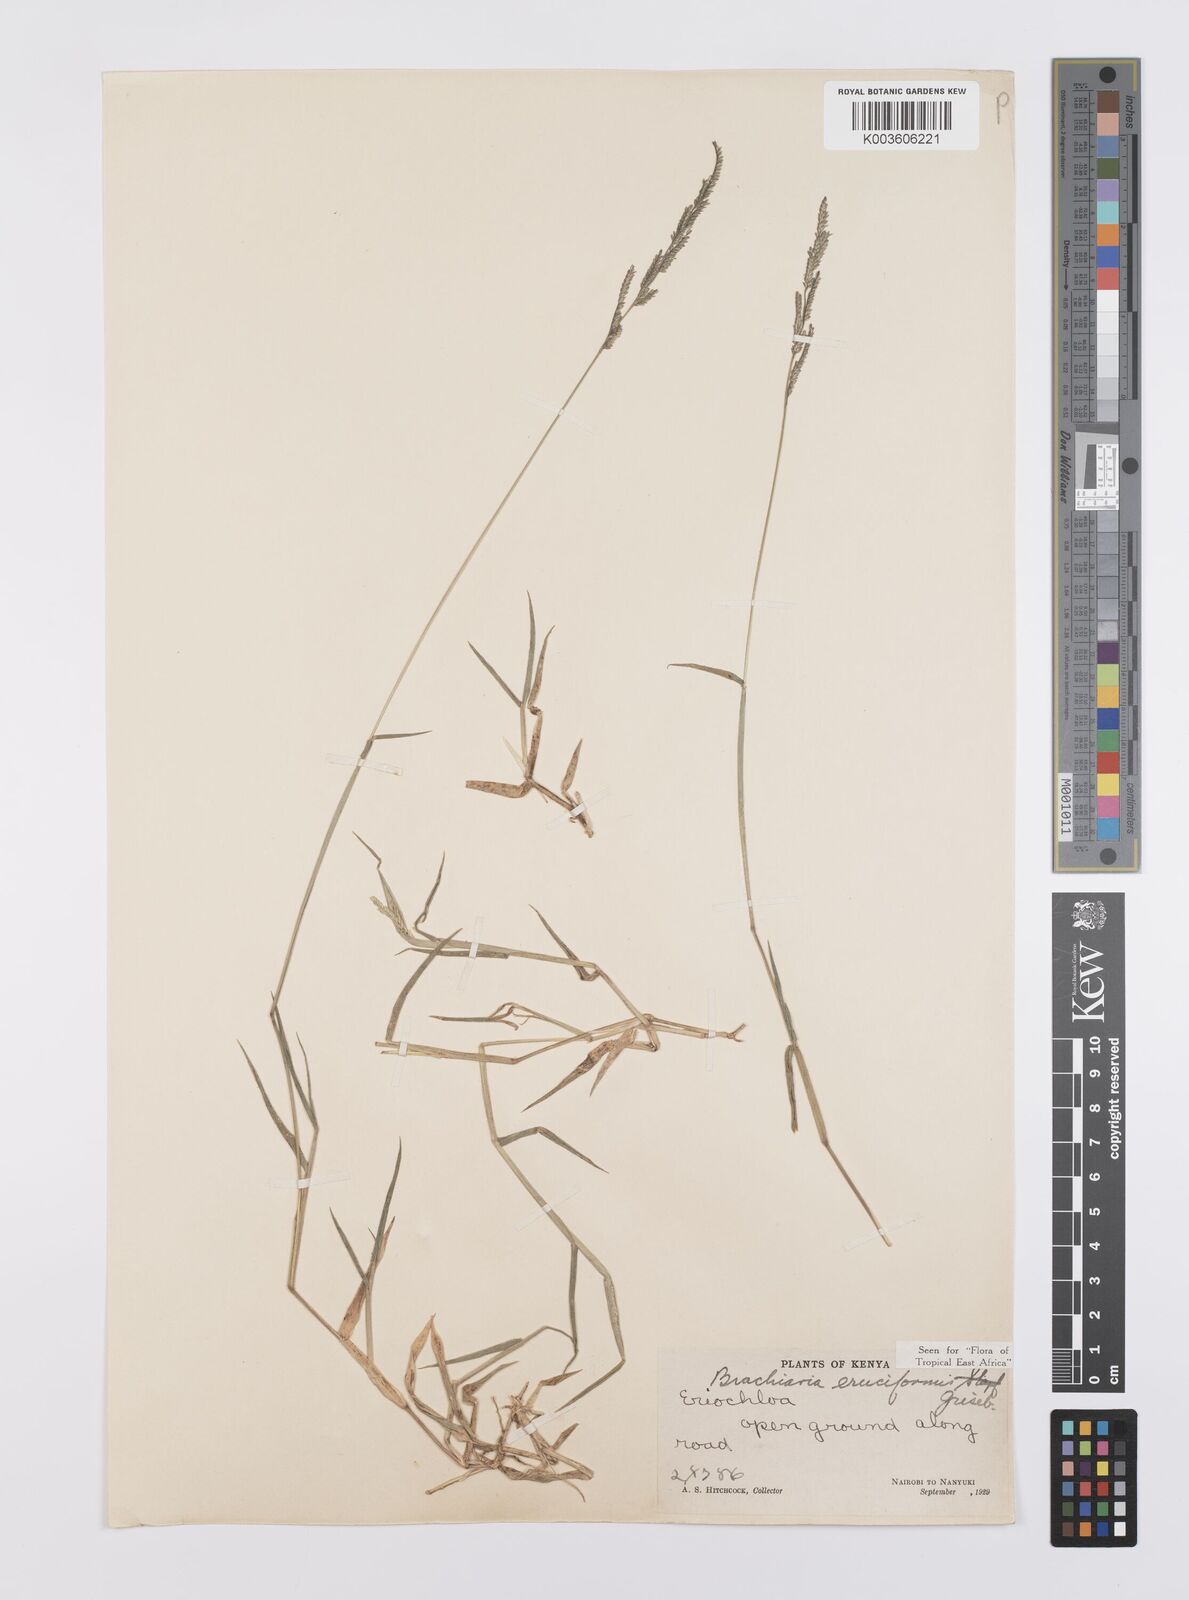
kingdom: Plantae
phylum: Tracheophyta
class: Liliopsida
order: Poales
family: Poaceae
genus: Moorochloa
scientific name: Moorochloa eruciformis
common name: Sweet signalgrass
